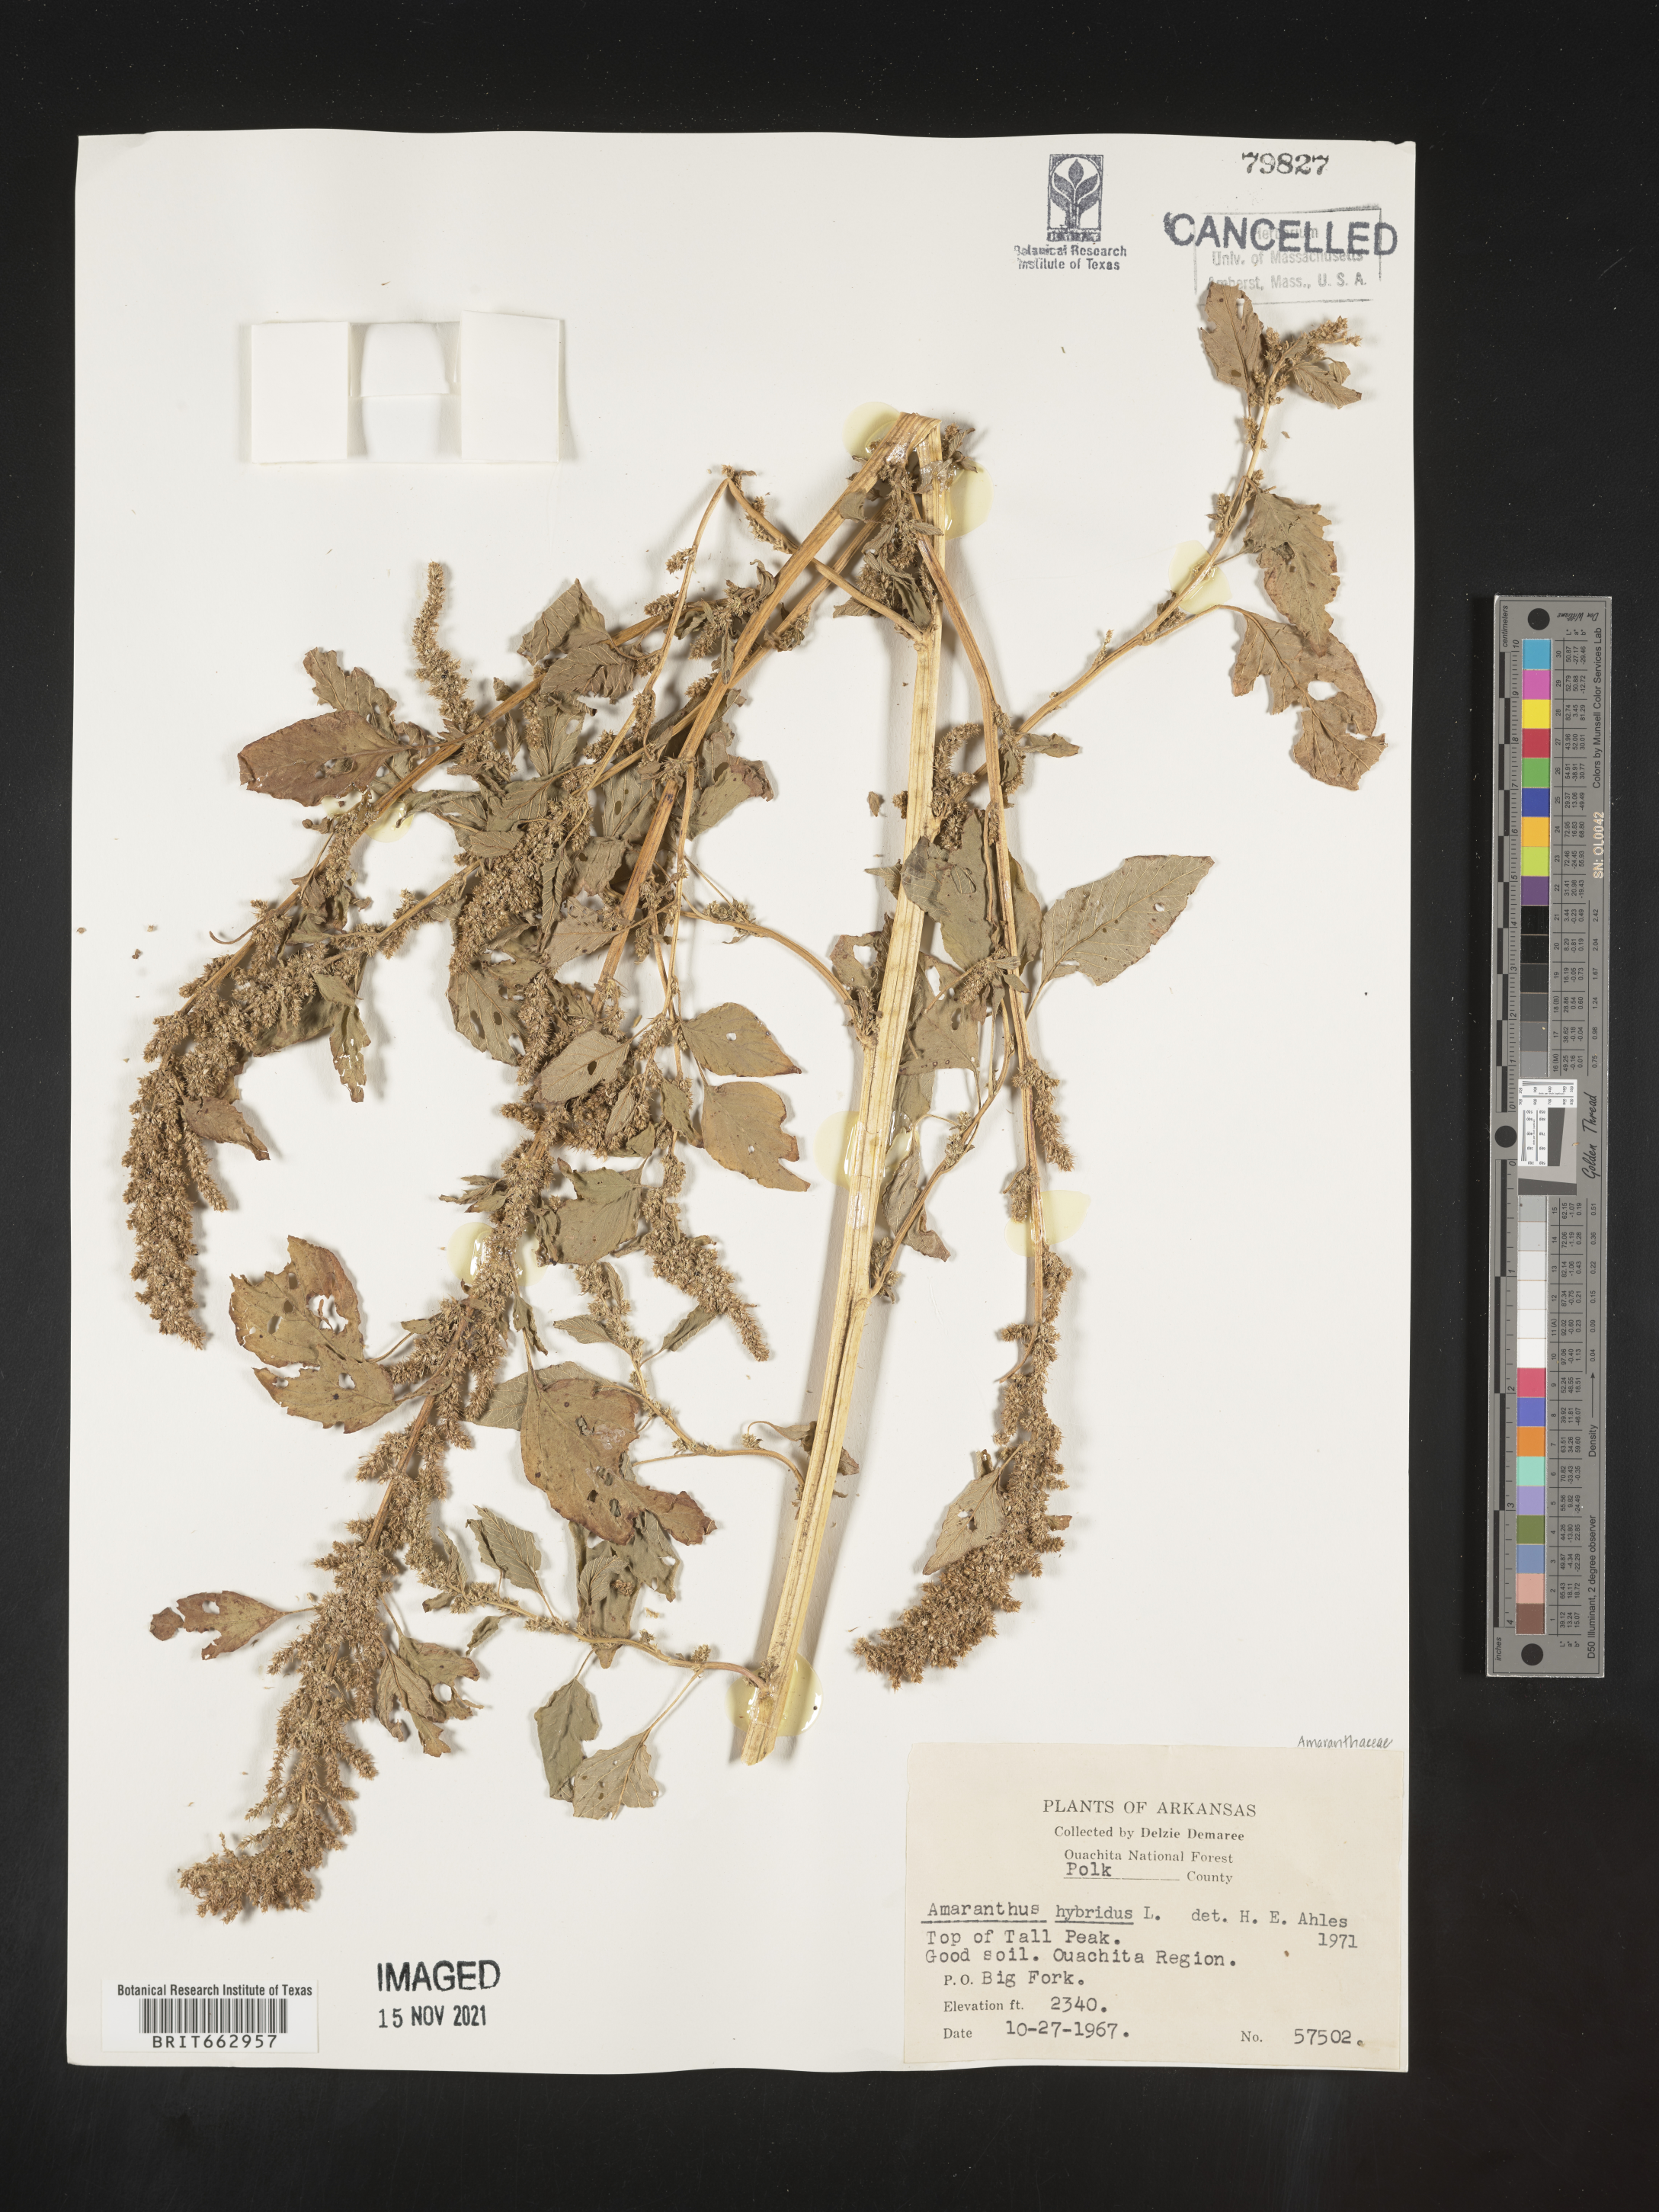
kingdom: Plantae
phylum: Tracheophyta
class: Magnoliopsida
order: Caryophyllales
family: Amaranthaceae
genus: Amaranthus
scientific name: Amaranthus hybridus
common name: Green amaranth
